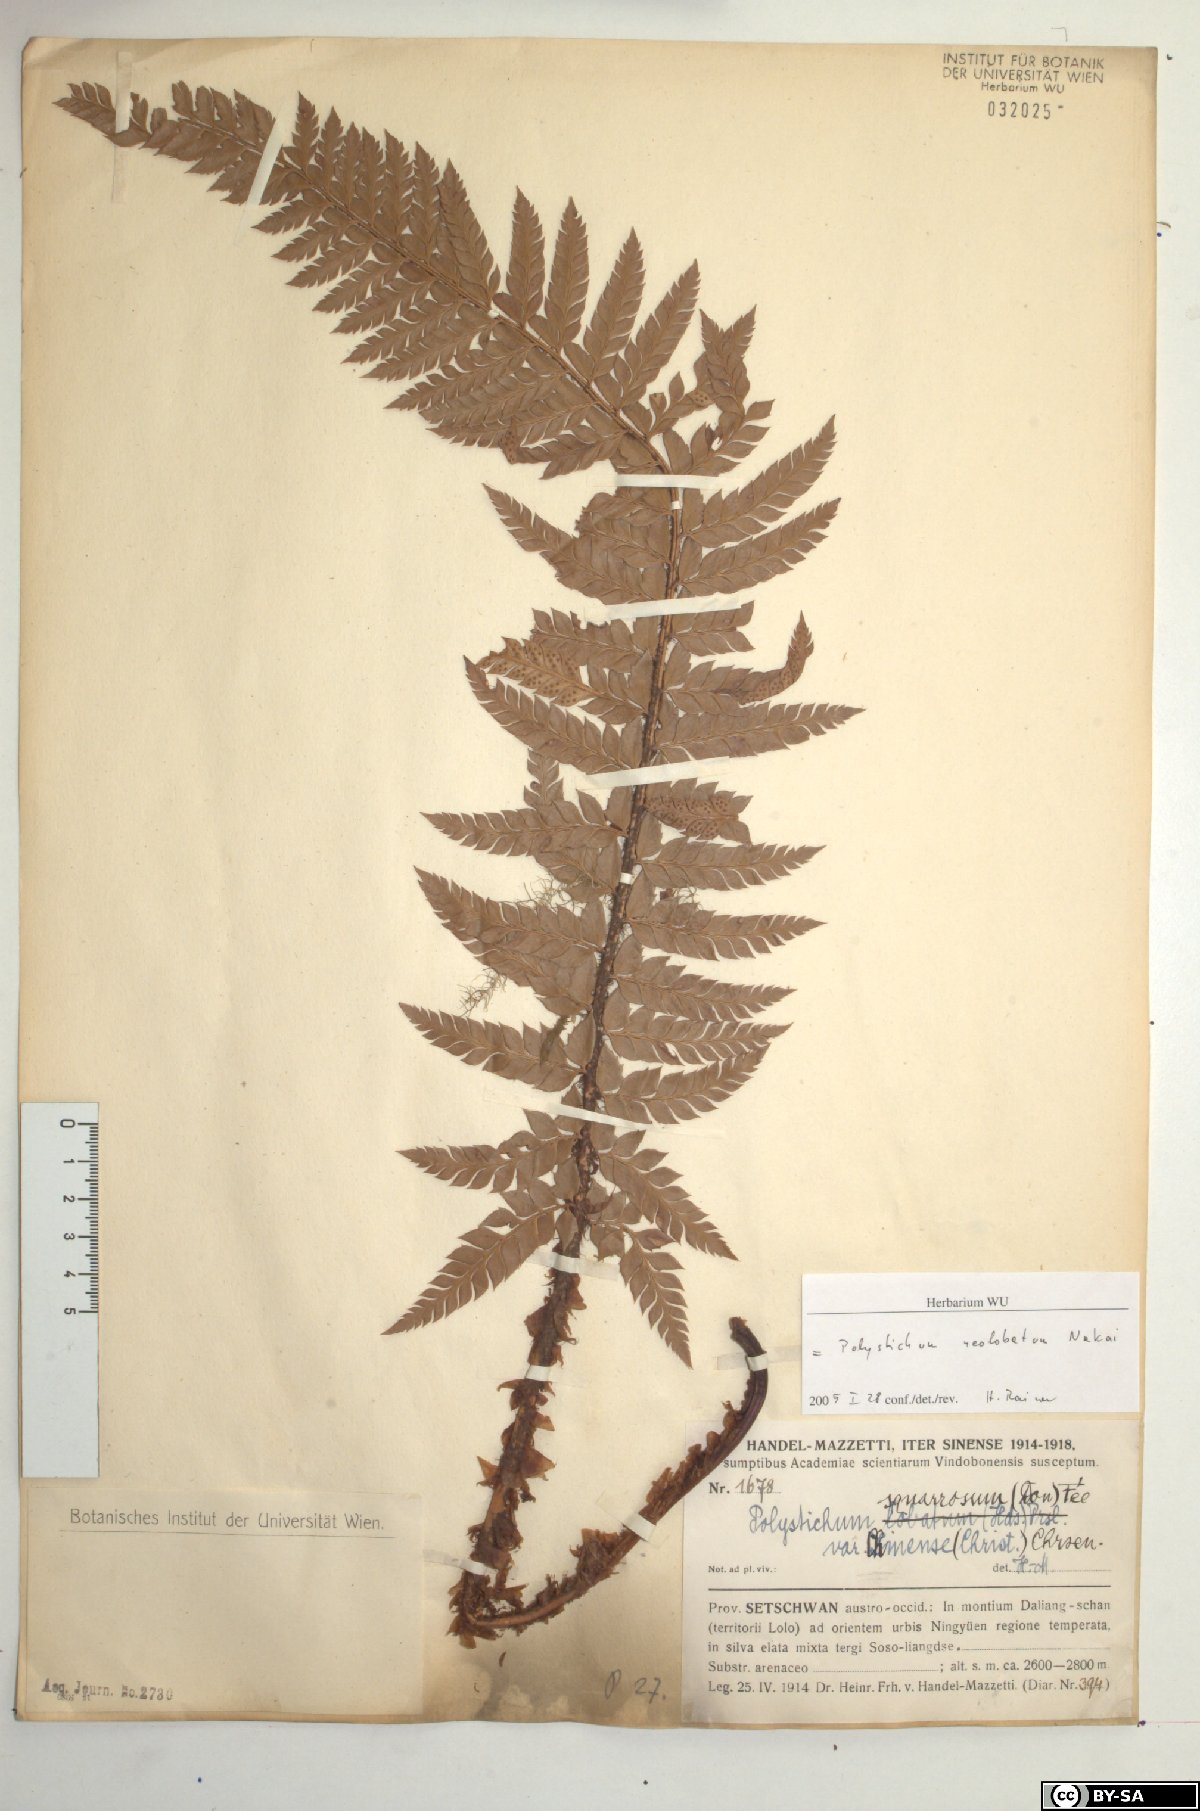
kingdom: Plantae
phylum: Tracheophyta
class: Polypodiopsida
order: Polypodiales
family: Dryopteridaceae
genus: Polystichum
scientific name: Polystichum neolobatum
